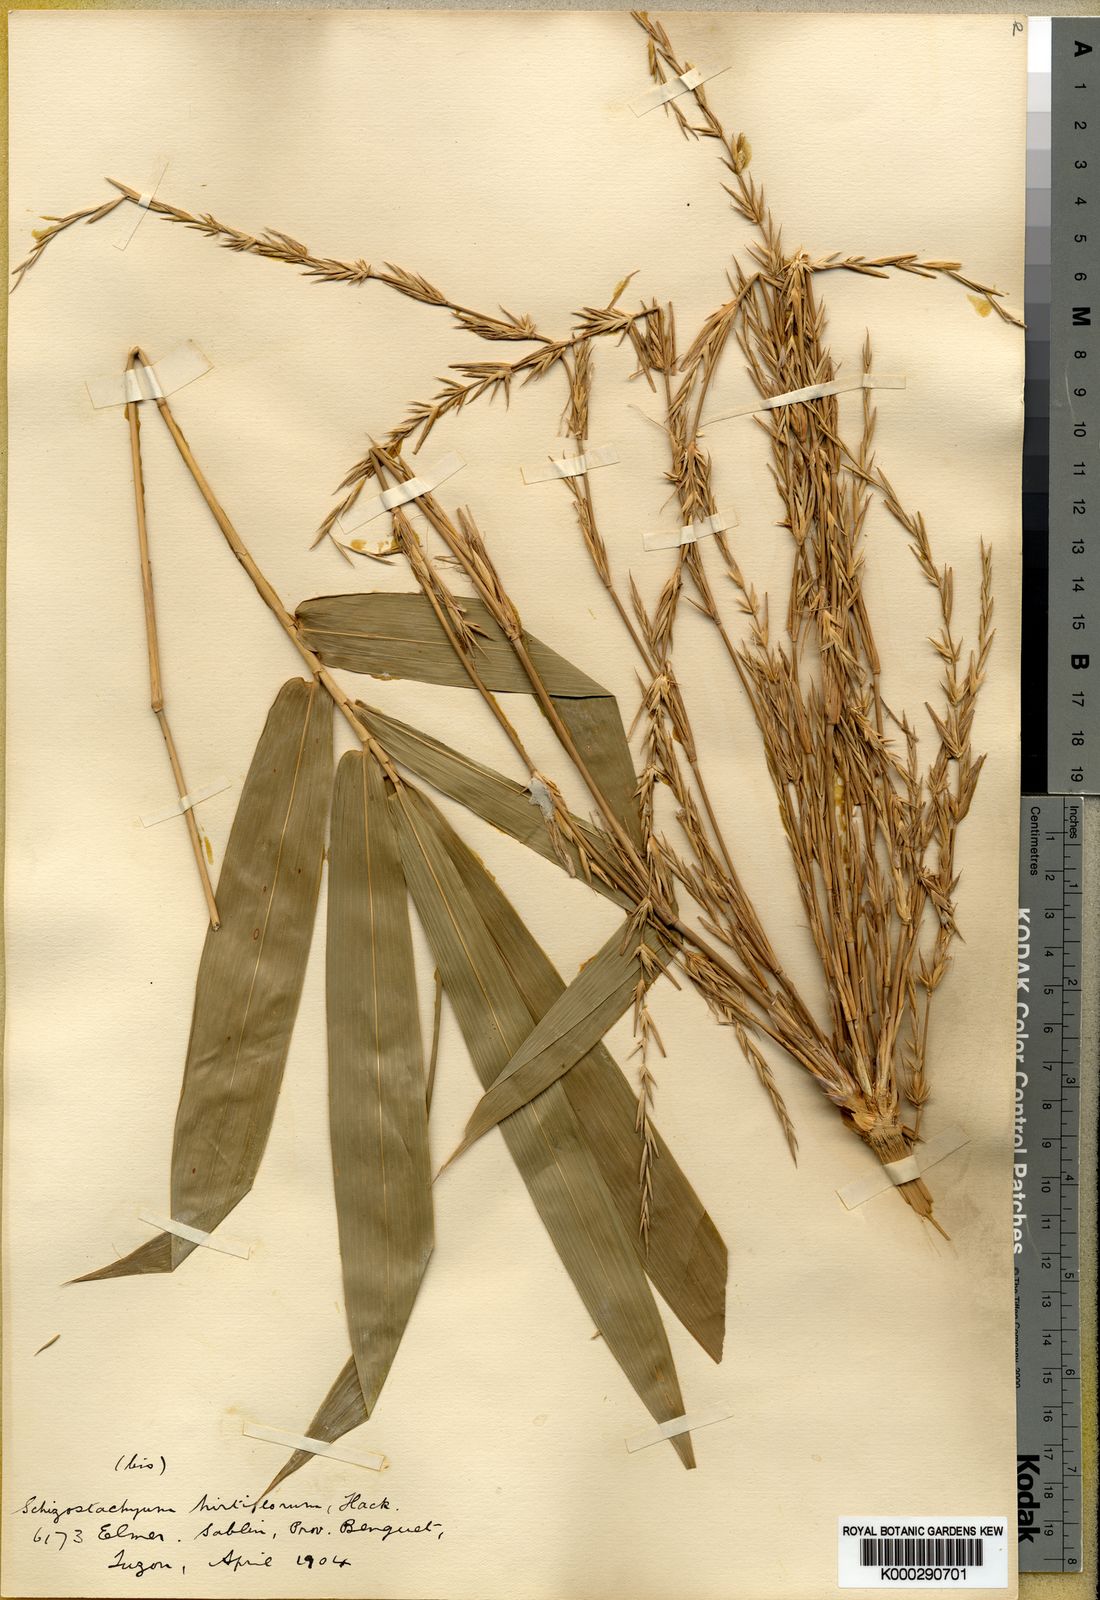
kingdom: Plantae
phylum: Tracheophyta
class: Liliopsida
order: Poales
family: Poaceae
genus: Schizostachyum
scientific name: Schizostachyum lumampao
